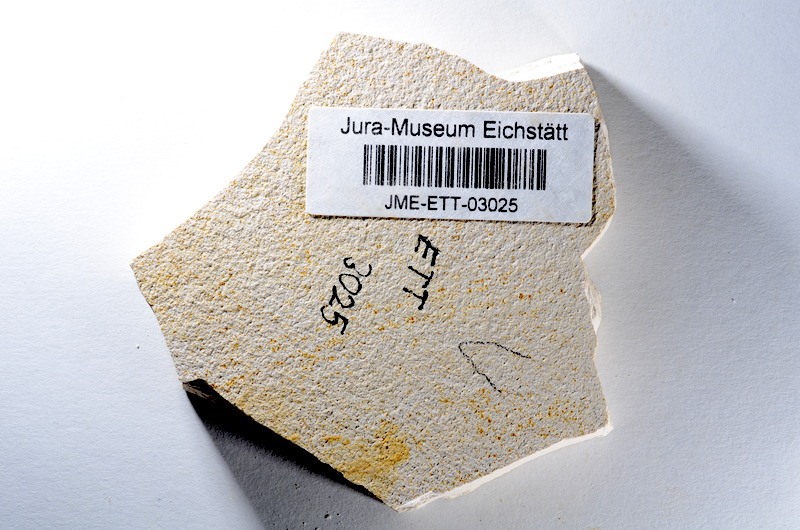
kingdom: Animalia
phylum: Chordata
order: Salmoniformes
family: Orthogonikleithridae
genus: Orthogonikleithrus
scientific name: Orthogonikleithrus hoelli
